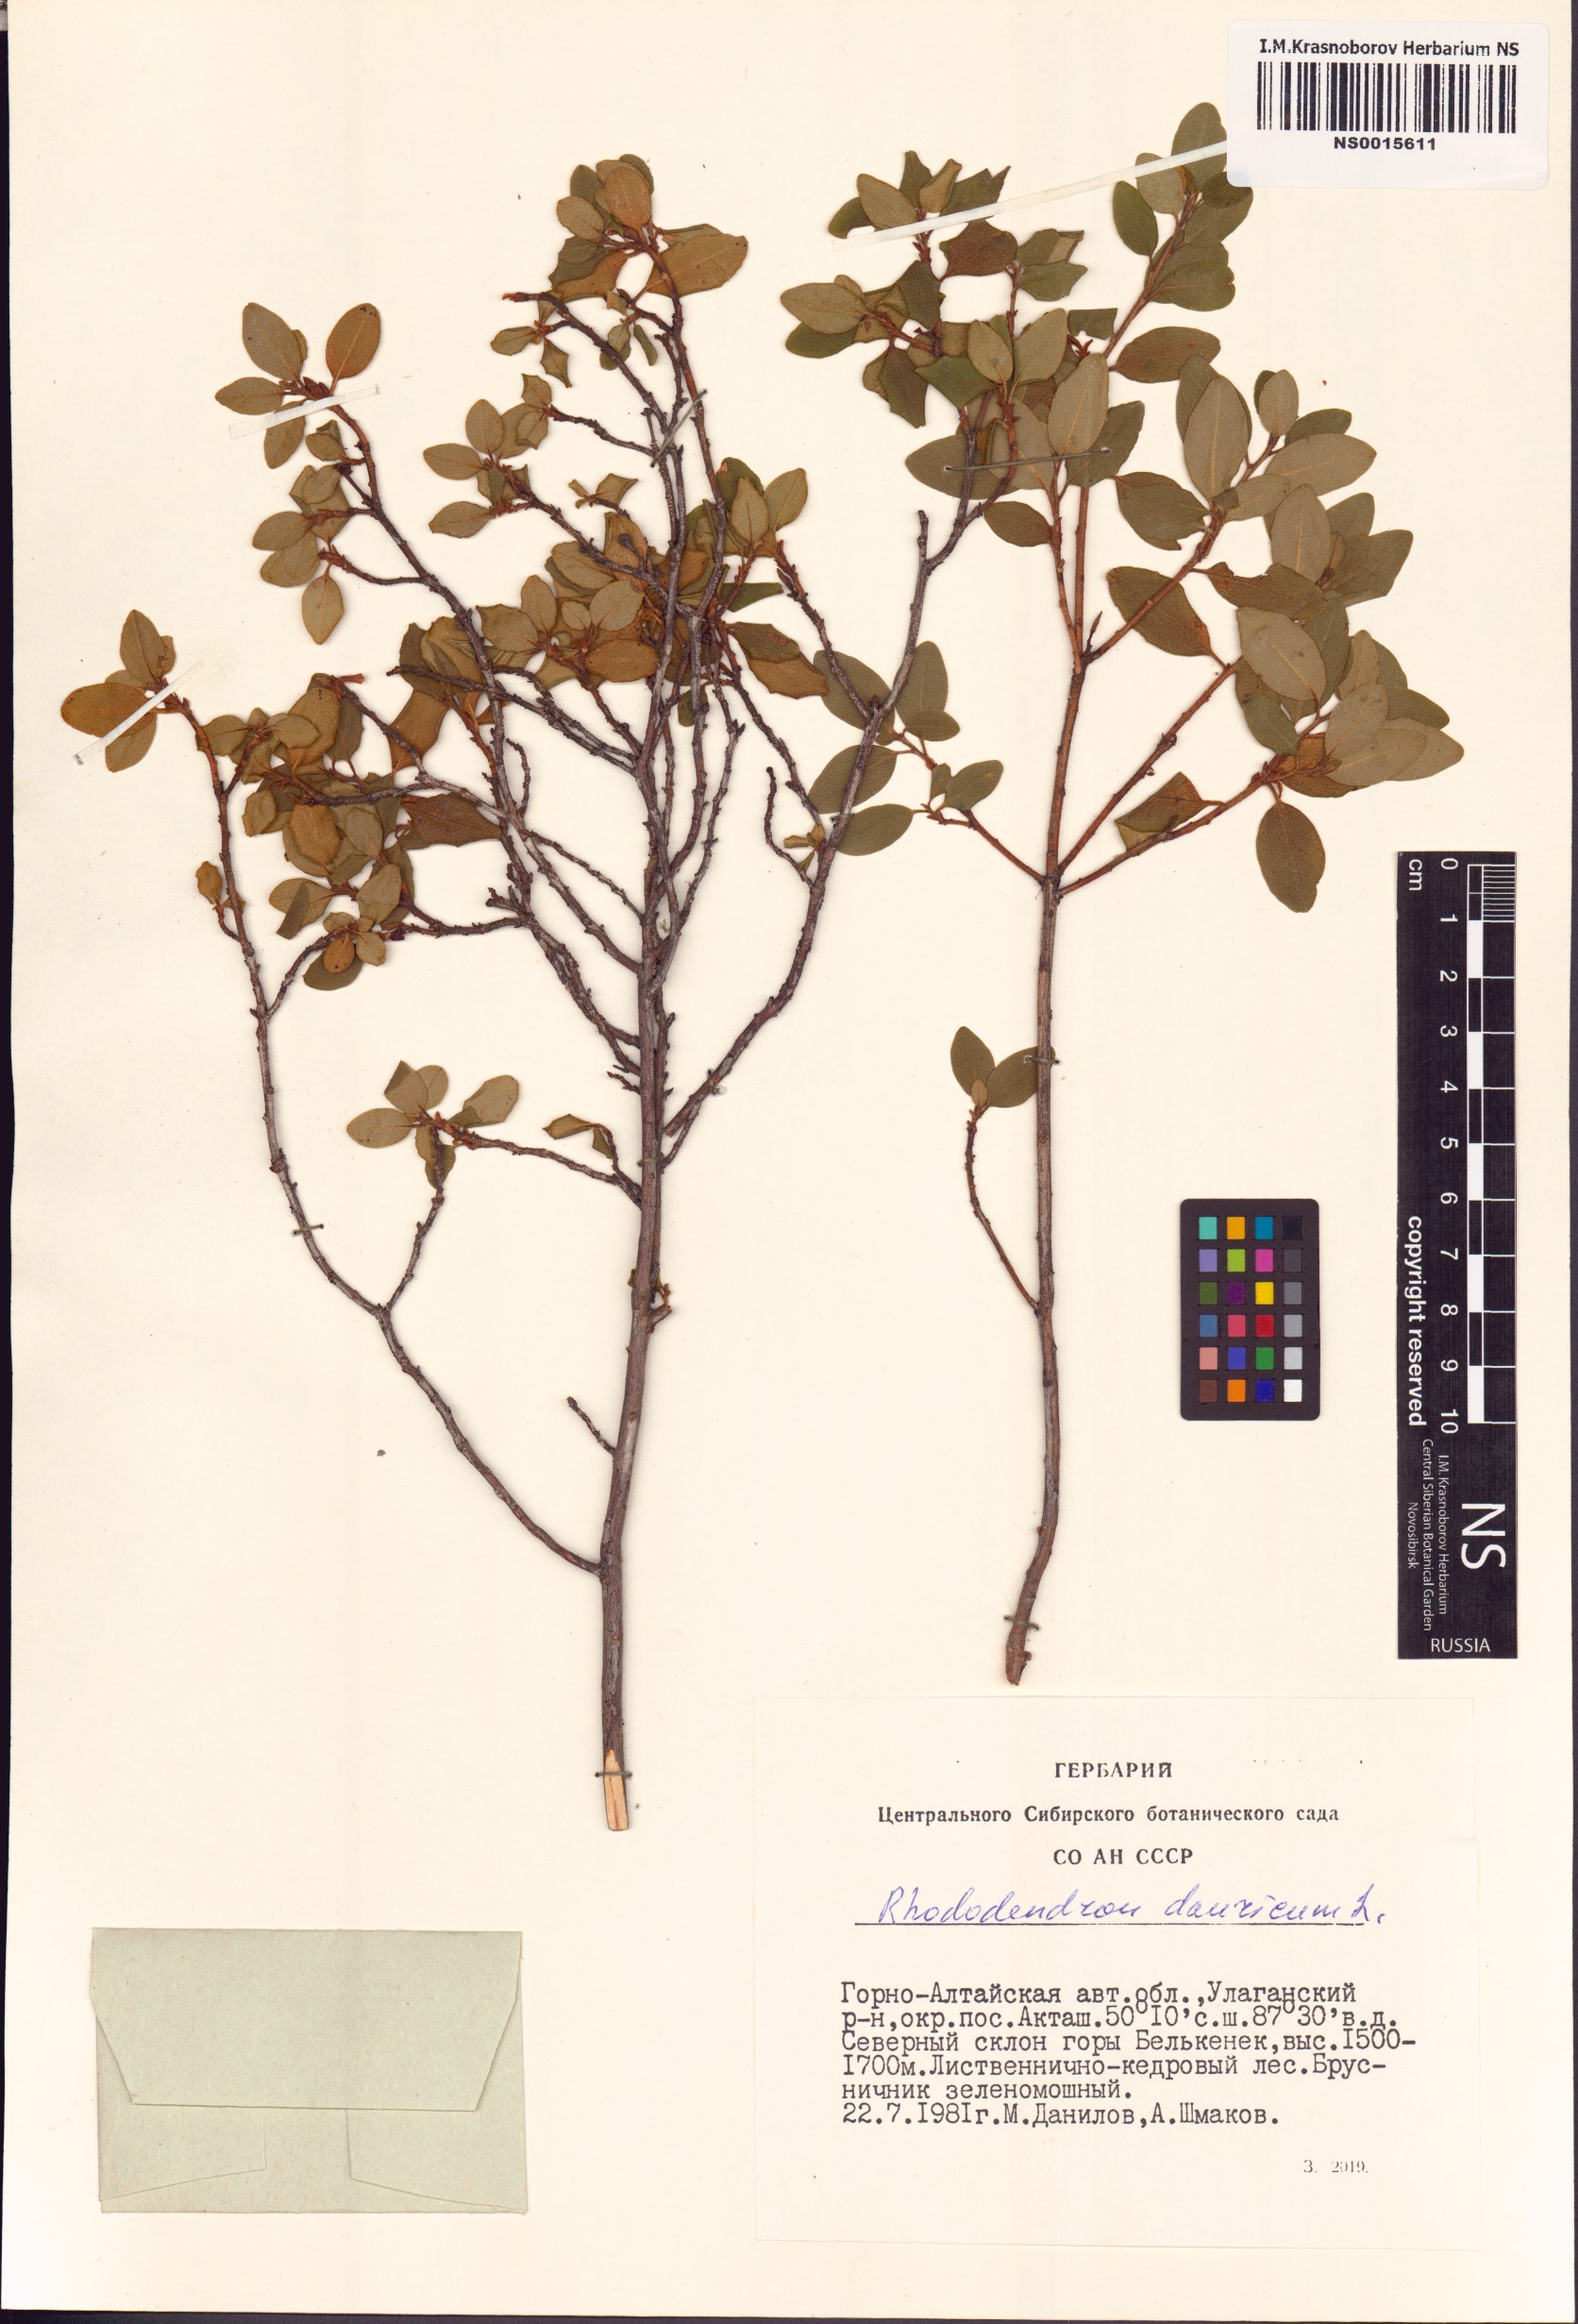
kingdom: Plantae
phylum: Tracheophyta
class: Magnoliopsida
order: Ericales
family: Ericaceae
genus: Rhododendron
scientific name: Rhododendron dauricum
